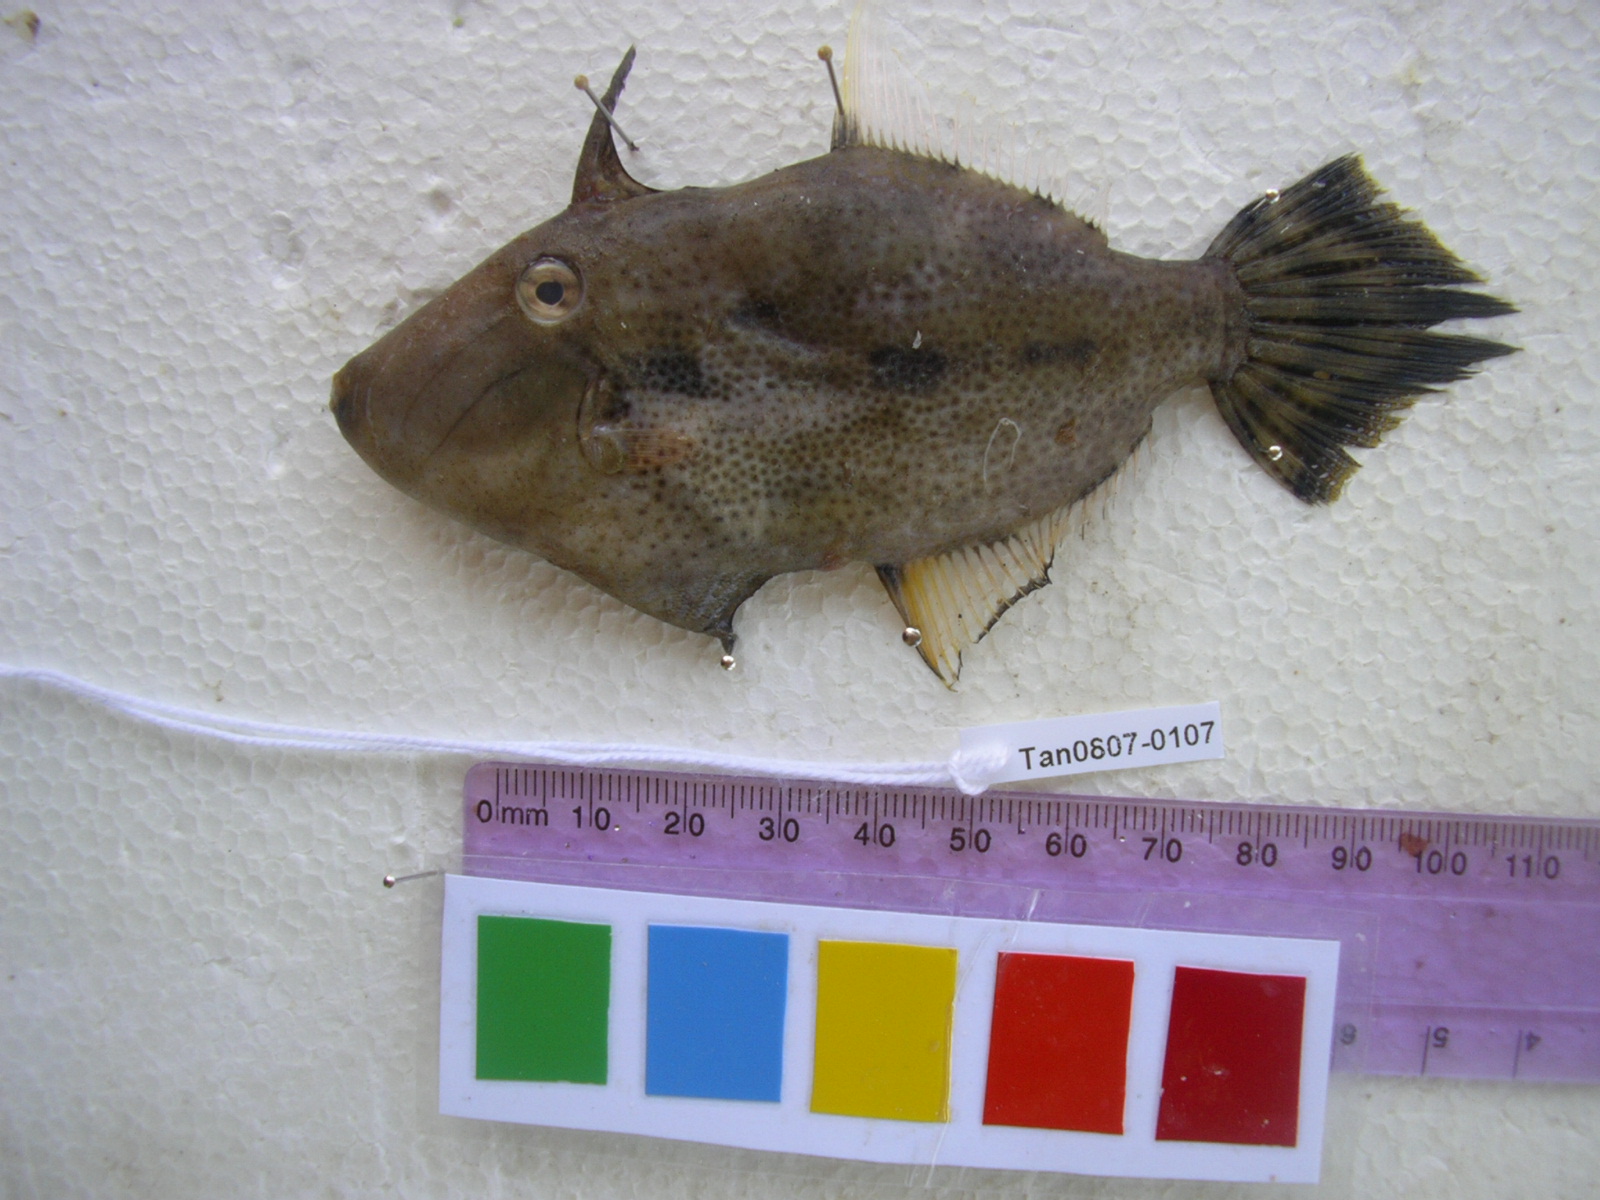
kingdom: Animalia
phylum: Chordata
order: Tetraodontiformes
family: Monacanthidae
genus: Paramonacanthus
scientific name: Paramonacanthus frenatus
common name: Wedgetail filefish
